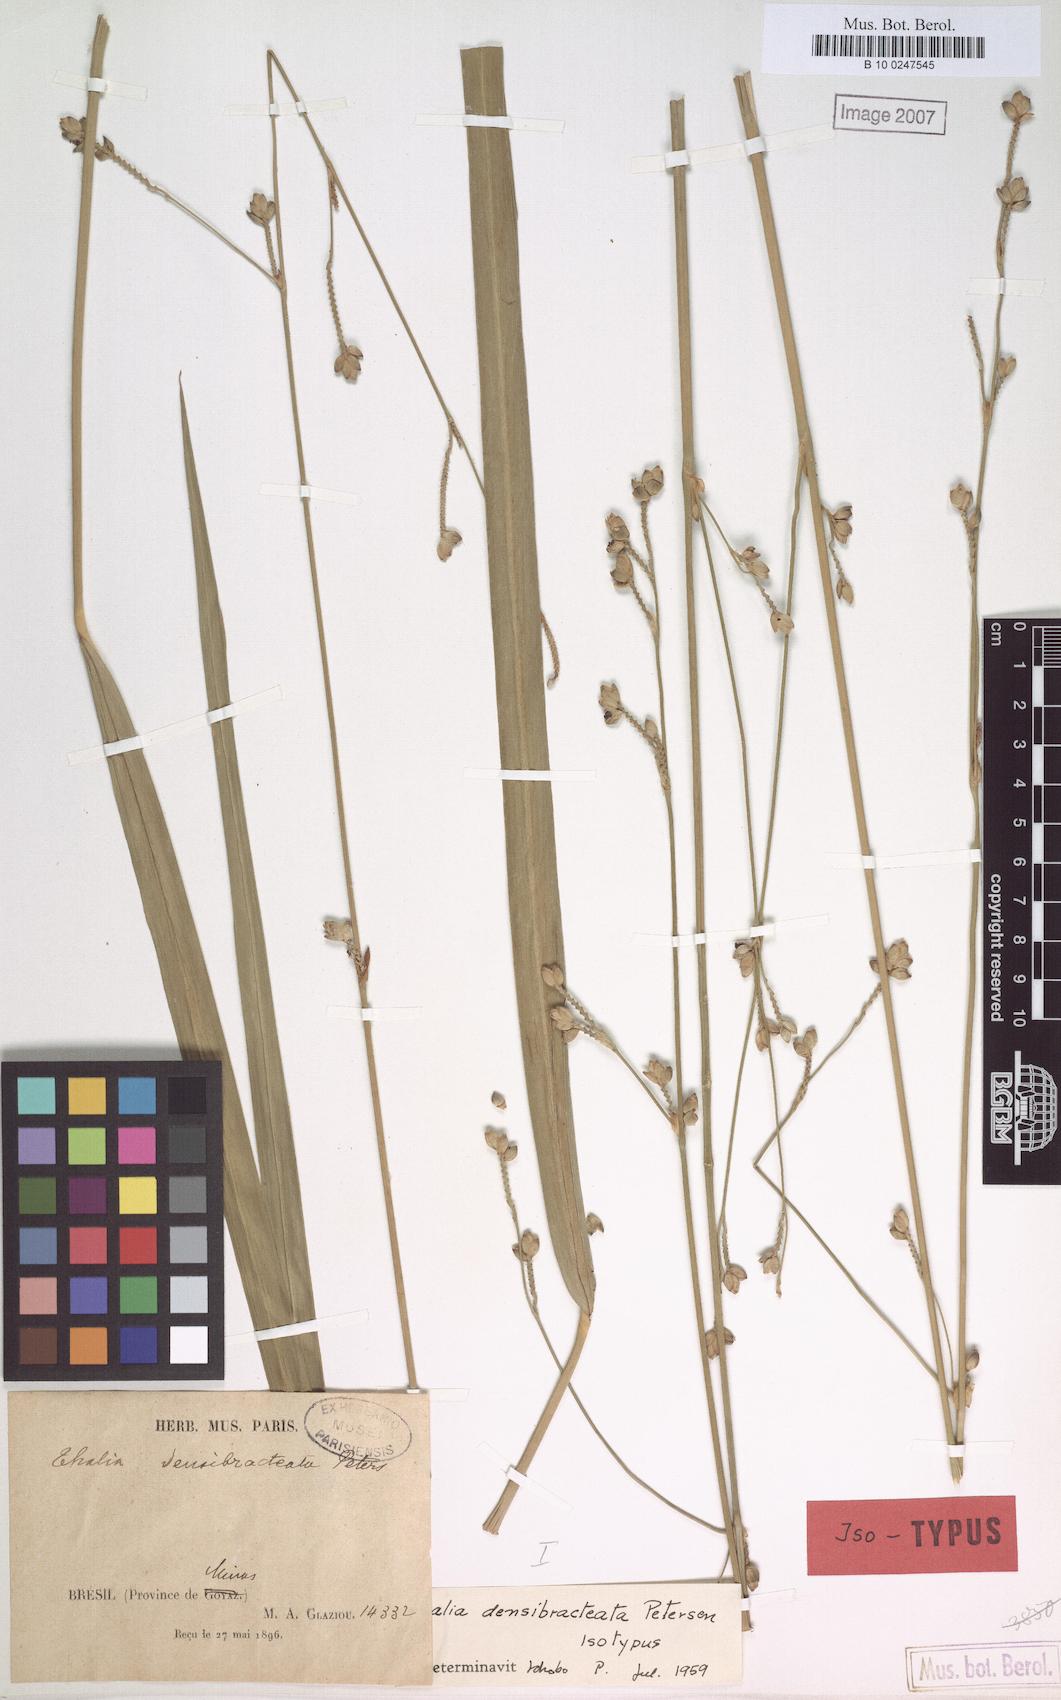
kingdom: Plantae
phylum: Tracheophyta
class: Liliopsida
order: Zingiberales
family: Marantaceae
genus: Thalia
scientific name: Thalia densibracteata
